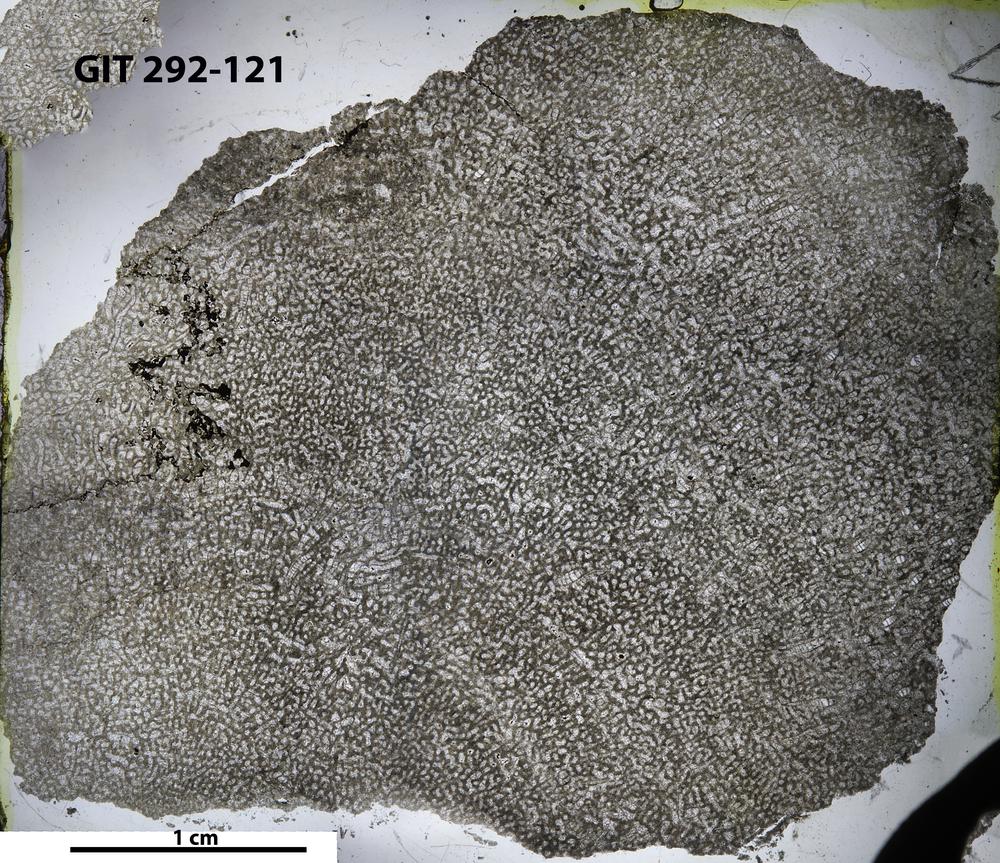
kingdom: Animalia
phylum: Porifera
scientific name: Porifera
